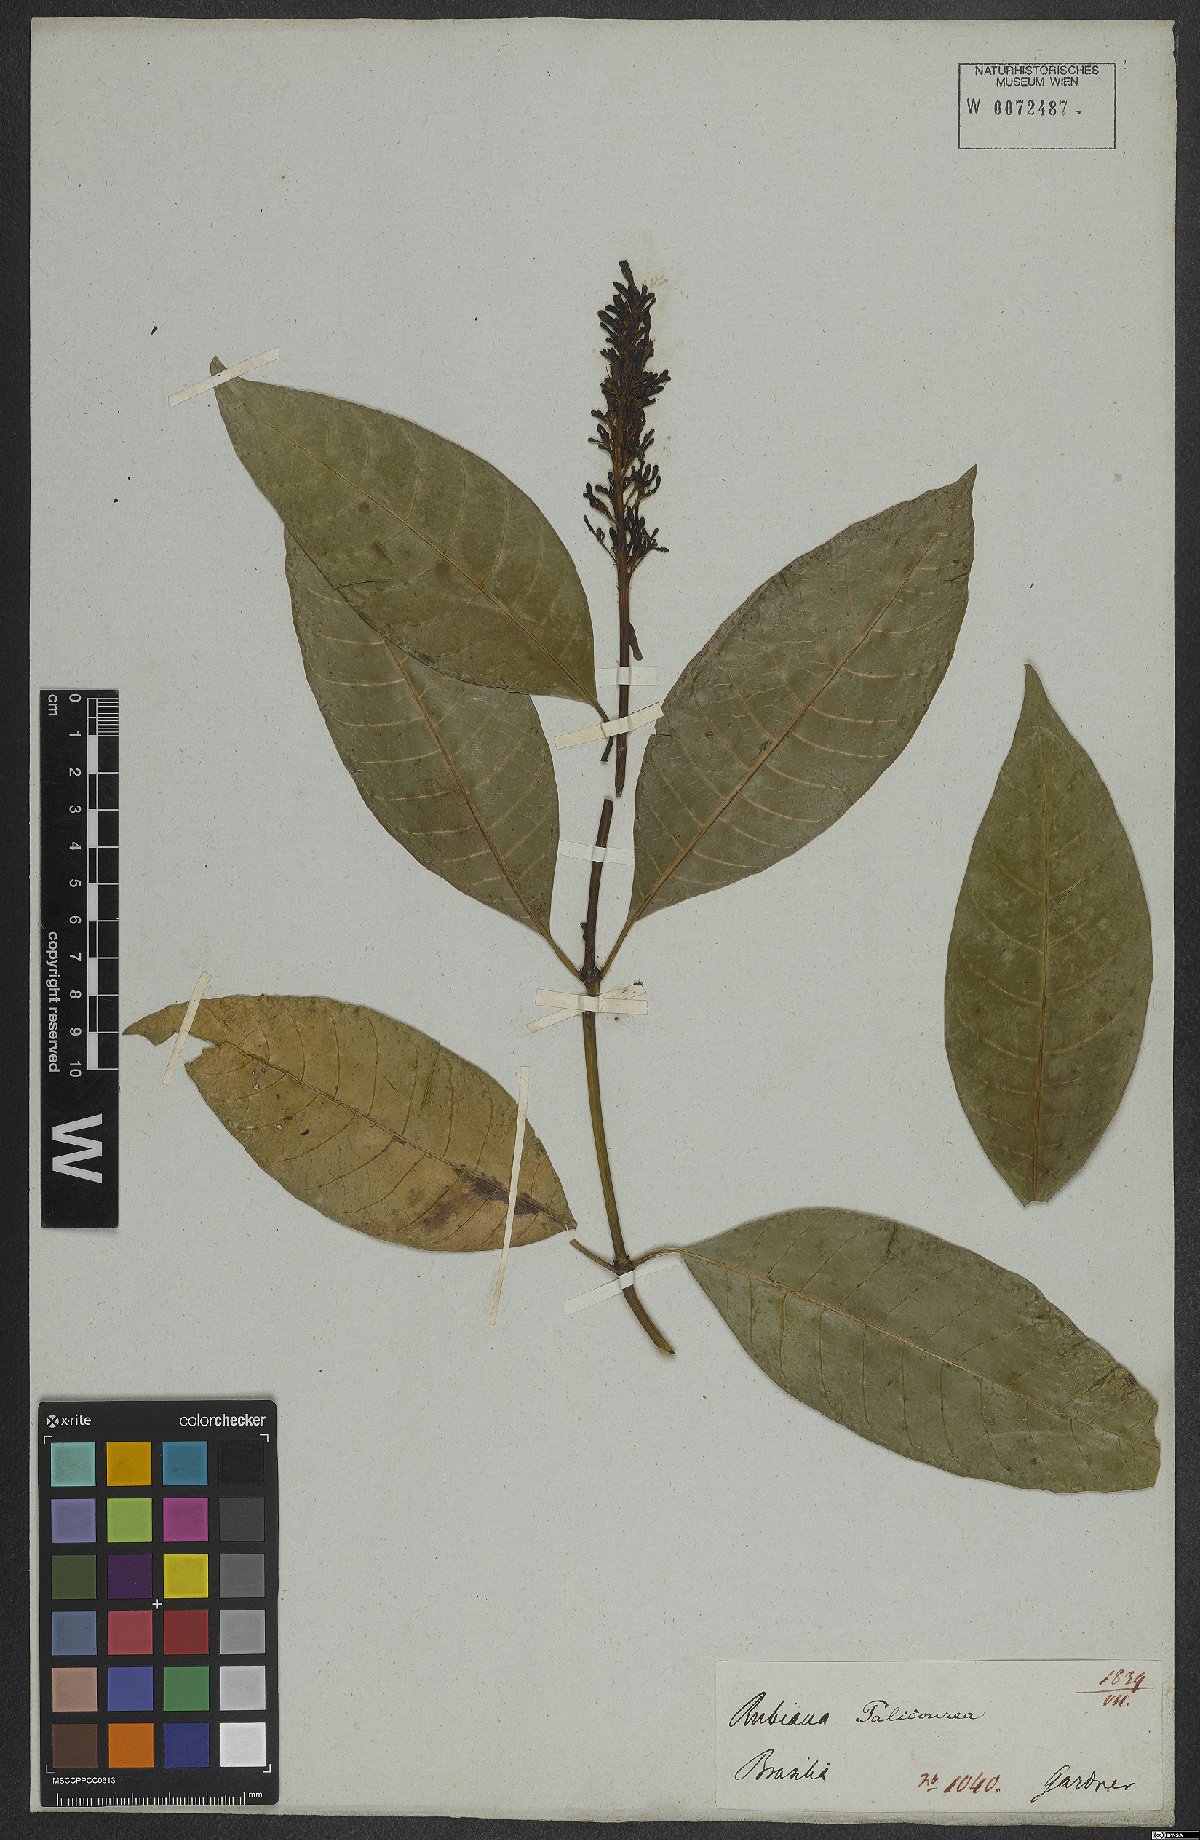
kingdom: Plantae
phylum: Tracheophyta
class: Magnoliopsida
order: Gentianales
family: Rubiaceae
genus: Palicourea
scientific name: Palicourea blanchetiana
